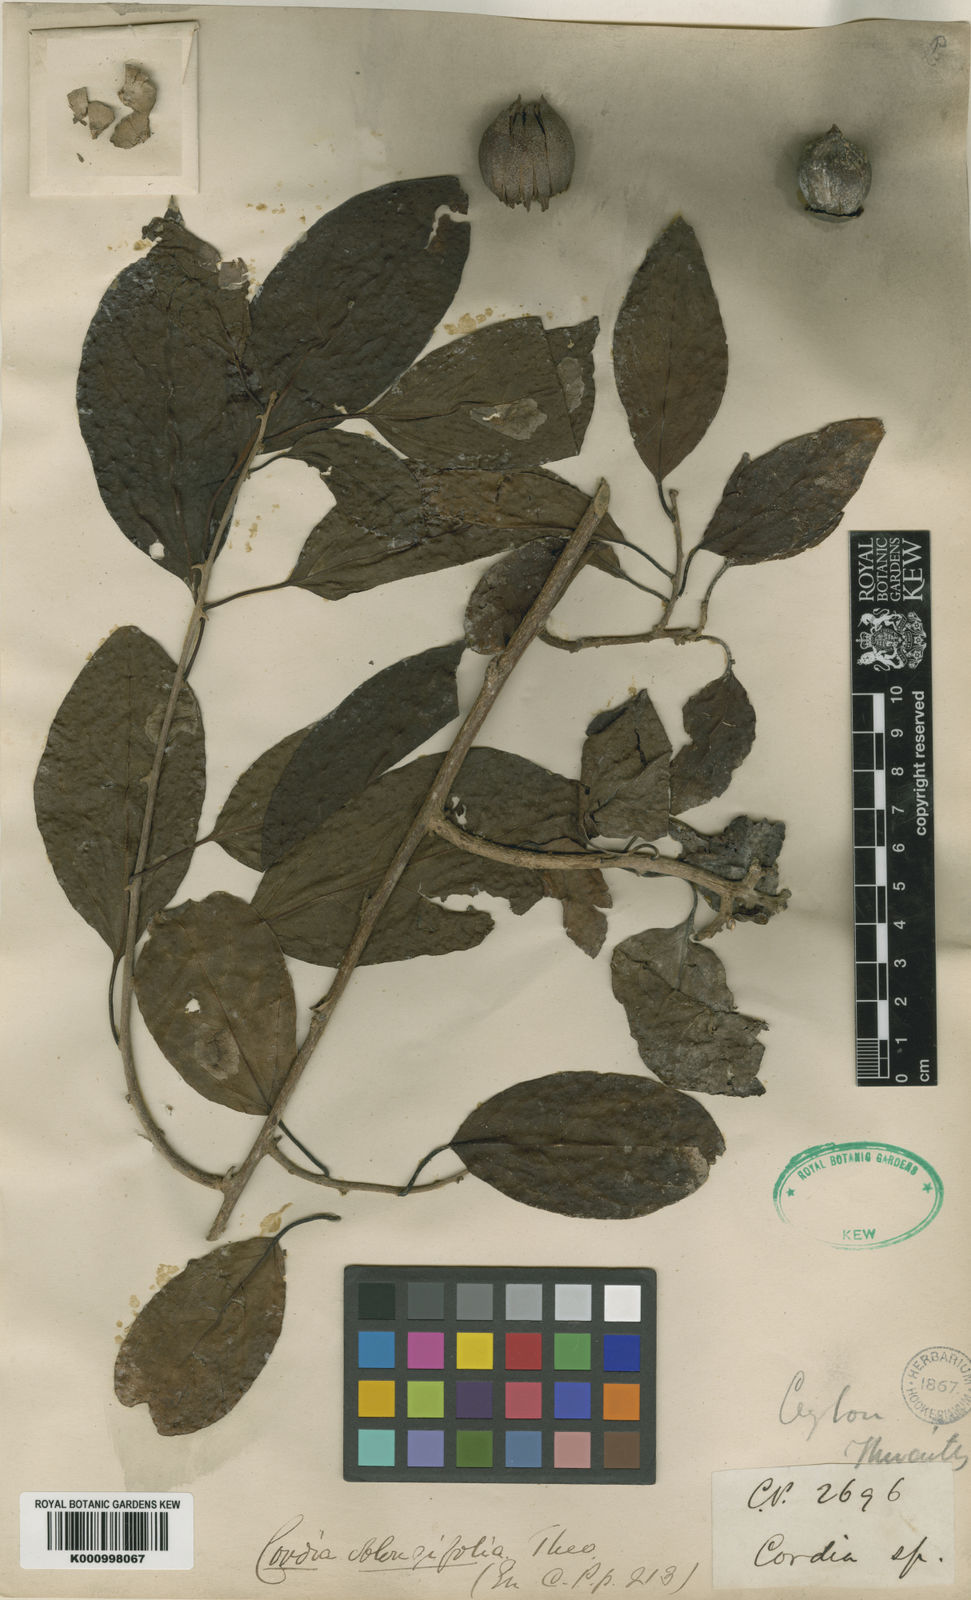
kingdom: Plantae
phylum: Tracheophyta
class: Magnoliopsida
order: Boraginales
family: Cordiaceae
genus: Cordia
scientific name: Cordia oblongifolia
